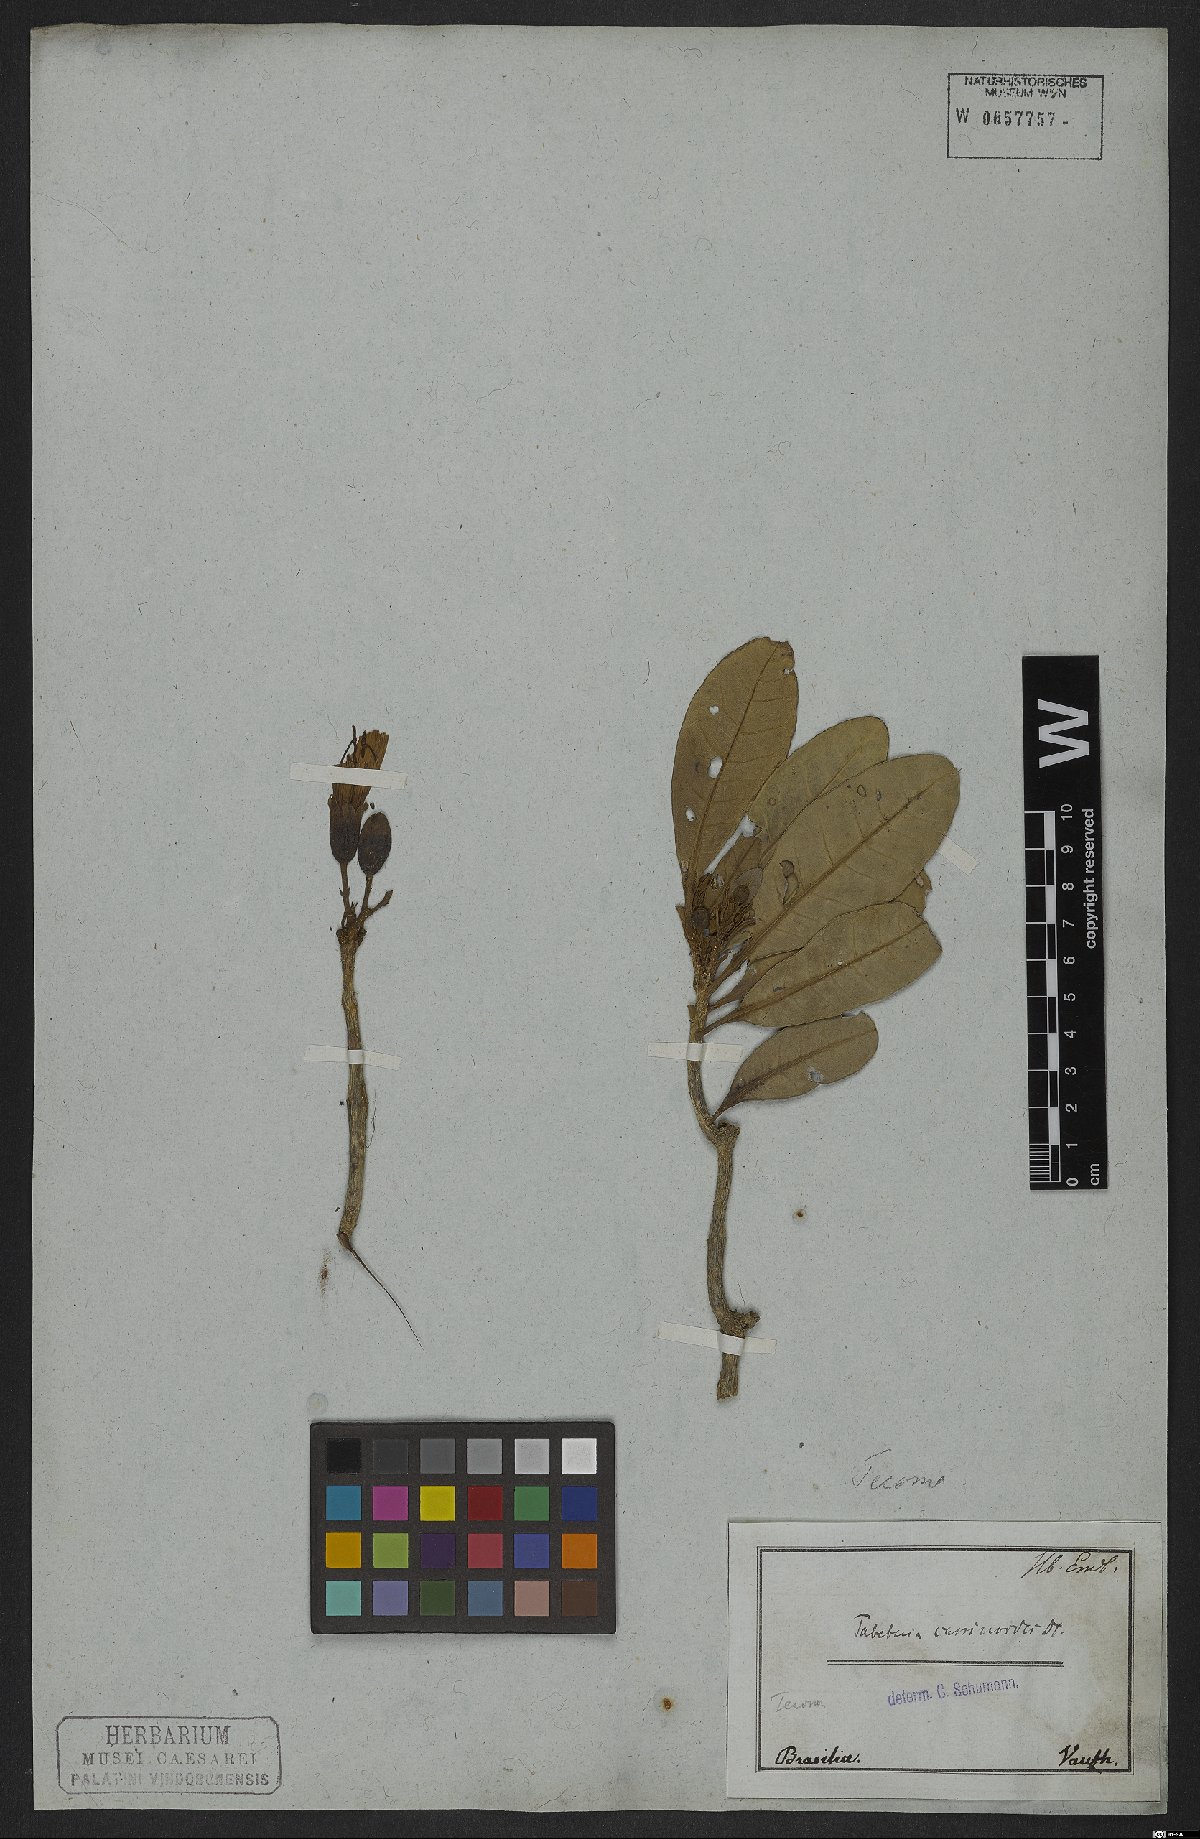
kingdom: Plantae
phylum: Tracheophyta
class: Magnoliopsida
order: Lamiales
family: Bignoniaceae
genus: Tabebuia
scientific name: Tabebuia cassinoides
